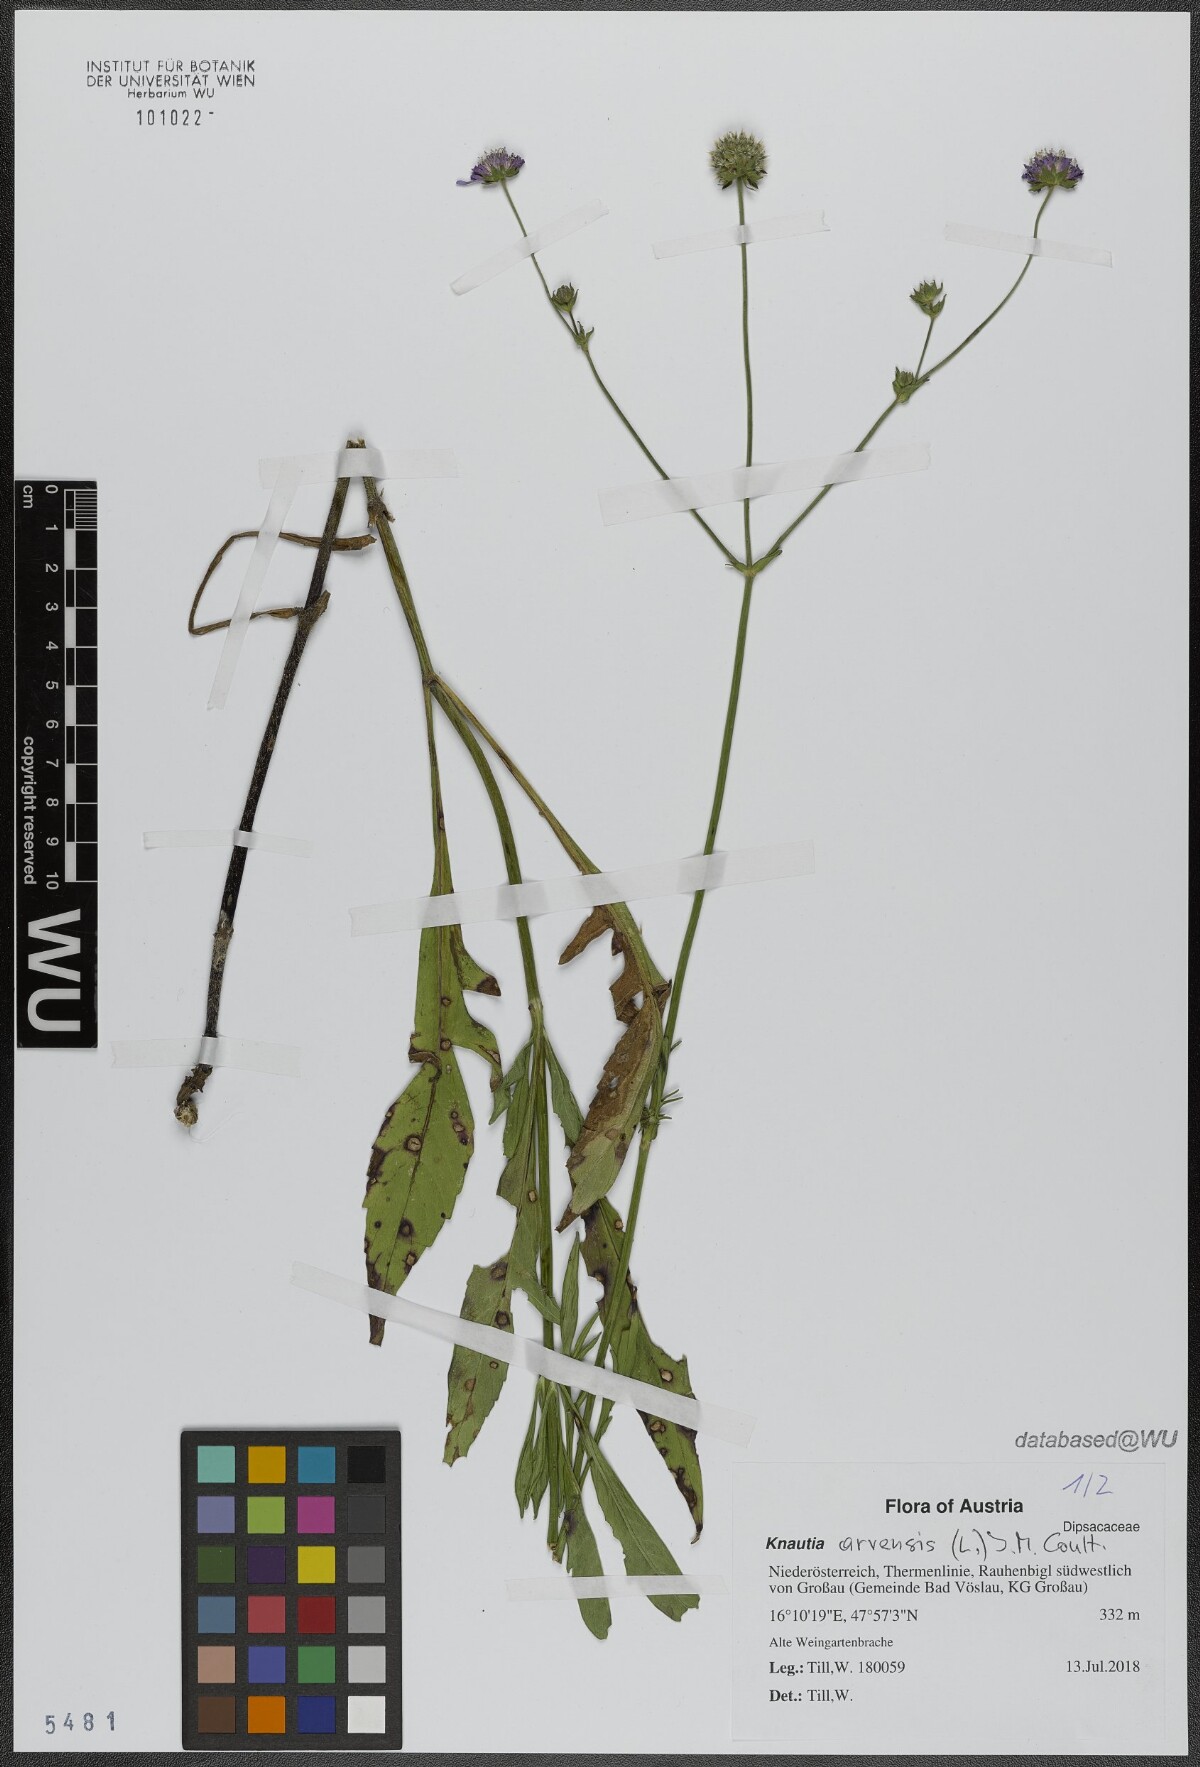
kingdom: Plantae
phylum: Tracheophyta
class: Magnoliopsida
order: Dipsacales
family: Caprifoliaceae
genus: Knautia
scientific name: Knautia arvensis
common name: Field scabiosa
